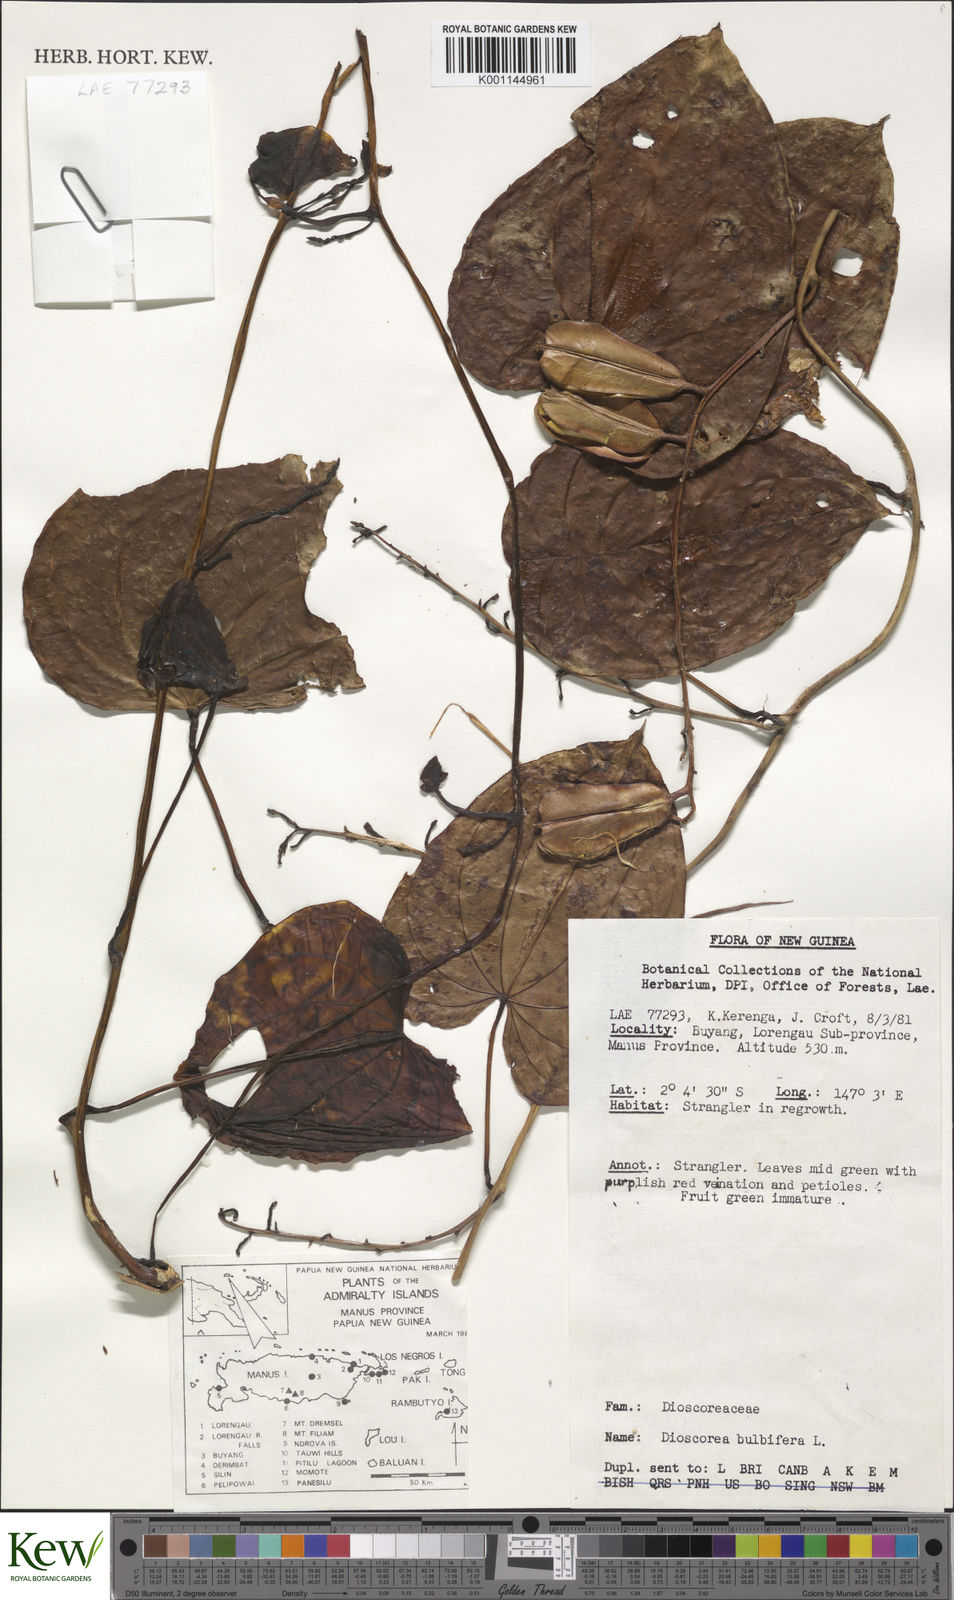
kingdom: Plantae
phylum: Tracheophyta
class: Liliopsida
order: Dioscoreales
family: Dioscoreaceae
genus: Dioscorea
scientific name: Dioscorea bulbifera
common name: Air yam
